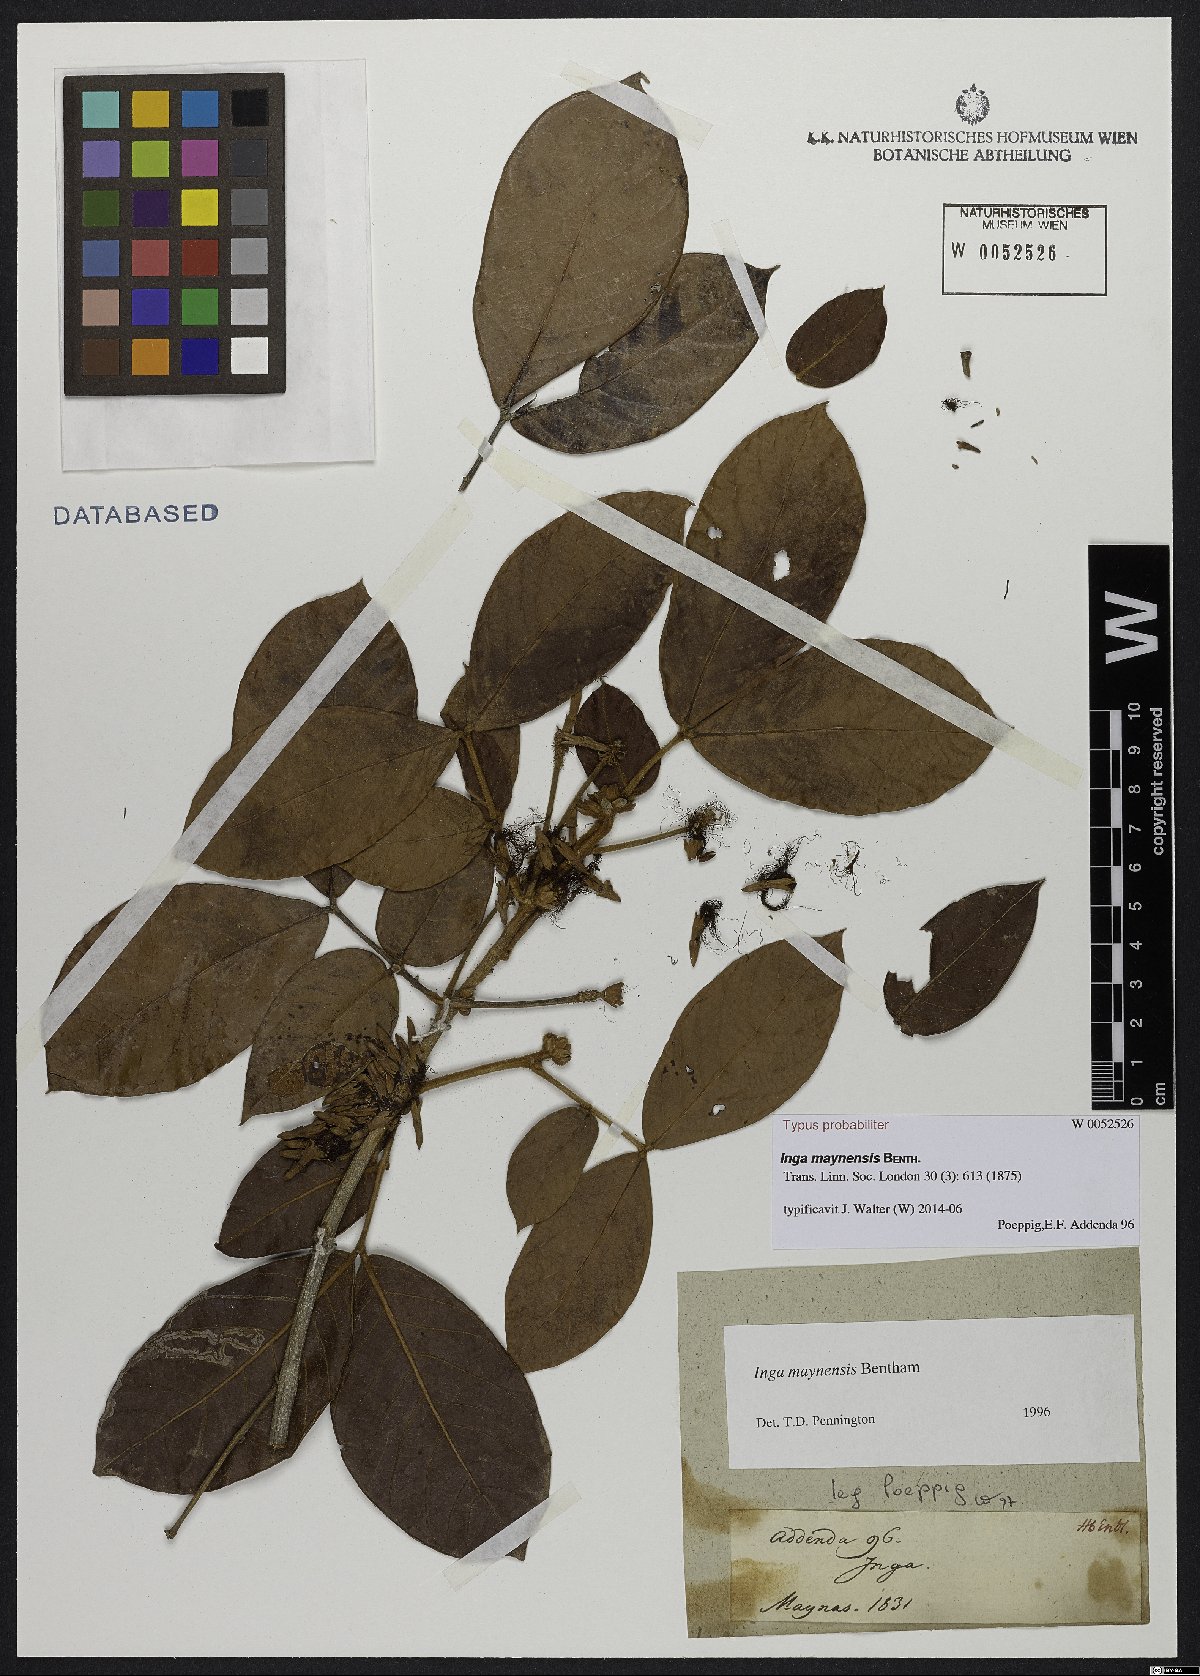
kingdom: Plantae
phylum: Tracheophyta
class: Magnoliopsida
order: Fabales
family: Fabaceae
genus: Inga
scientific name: Inga maynensis
